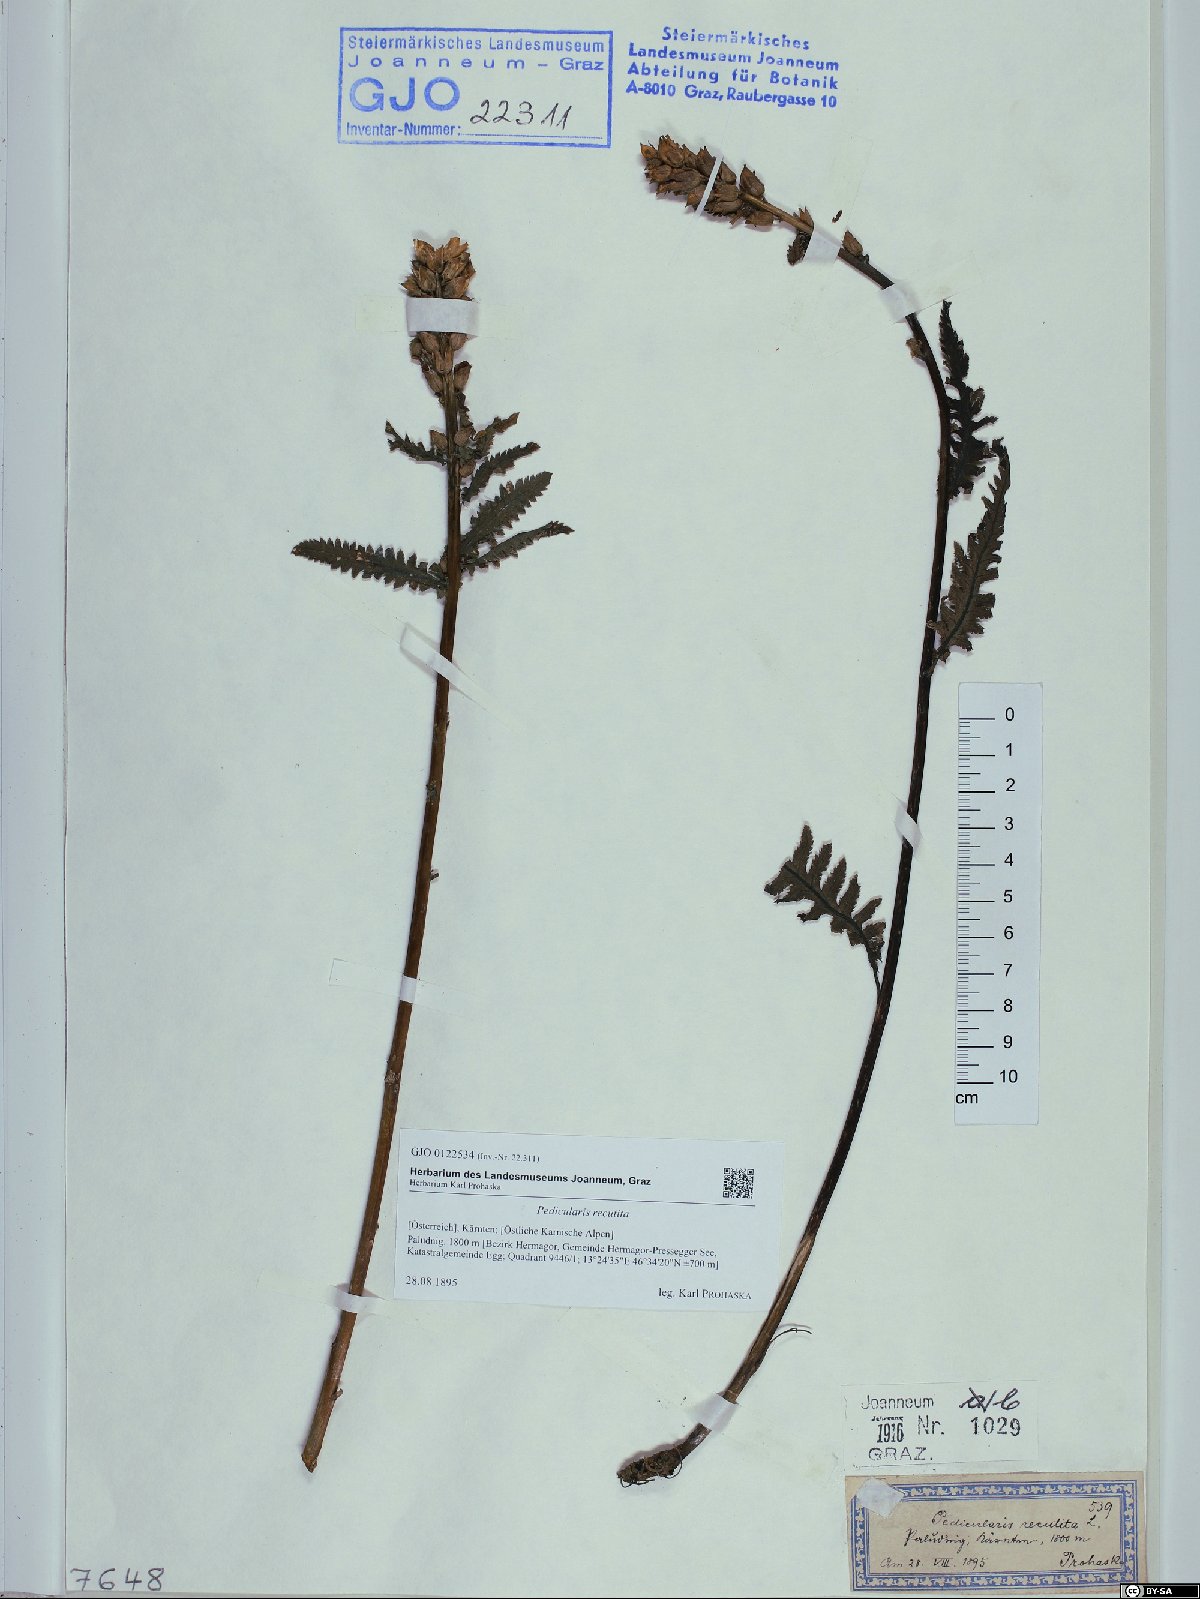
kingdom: Plantae
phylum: Tracheophyta
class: Magnoliopsida
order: Lamiales
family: Orobanchaceae
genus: Pedicularis
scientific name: Pedicularis recutita
